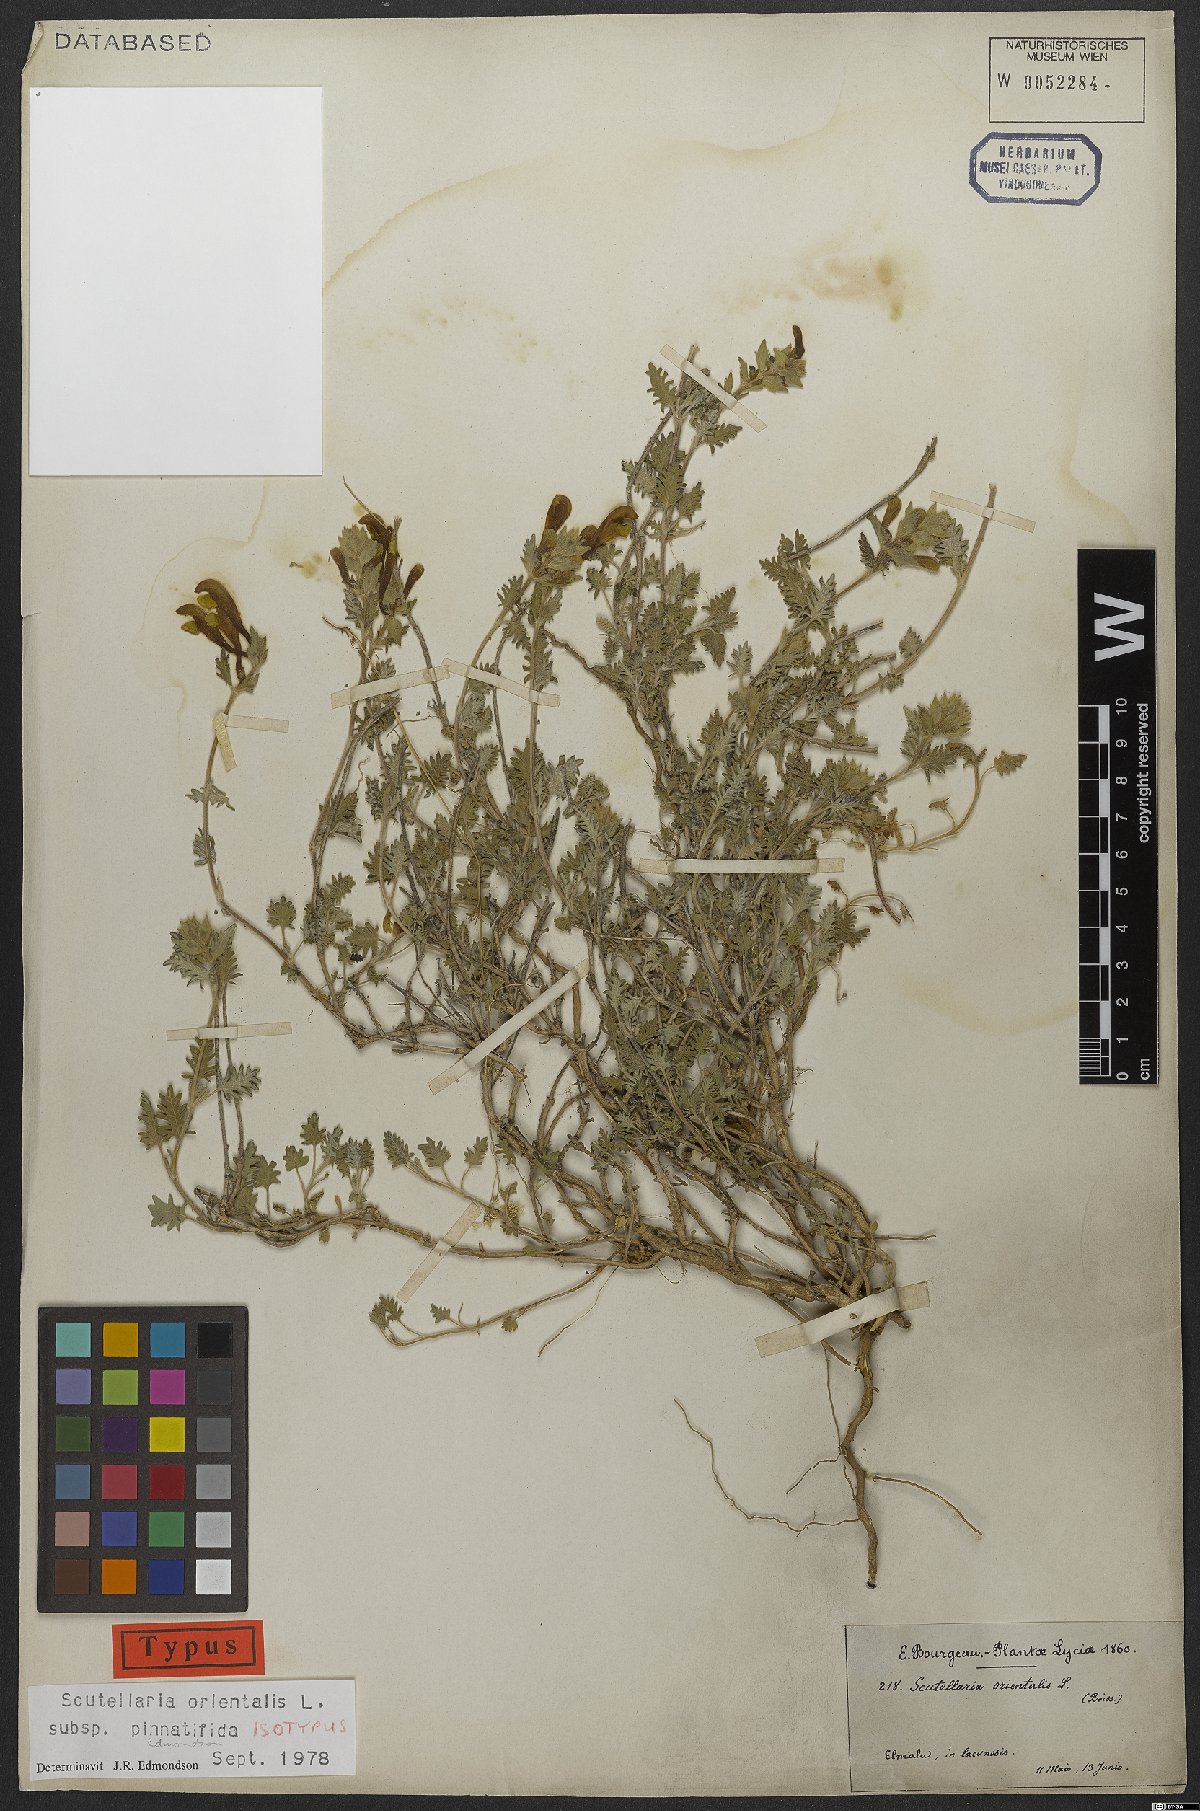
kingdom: Plantae
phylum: Tracheophyta
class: Magnoliopsida
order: Lamiales
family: Lamiaceae
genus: Scutellaria
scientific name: Scutellaria orientalis
